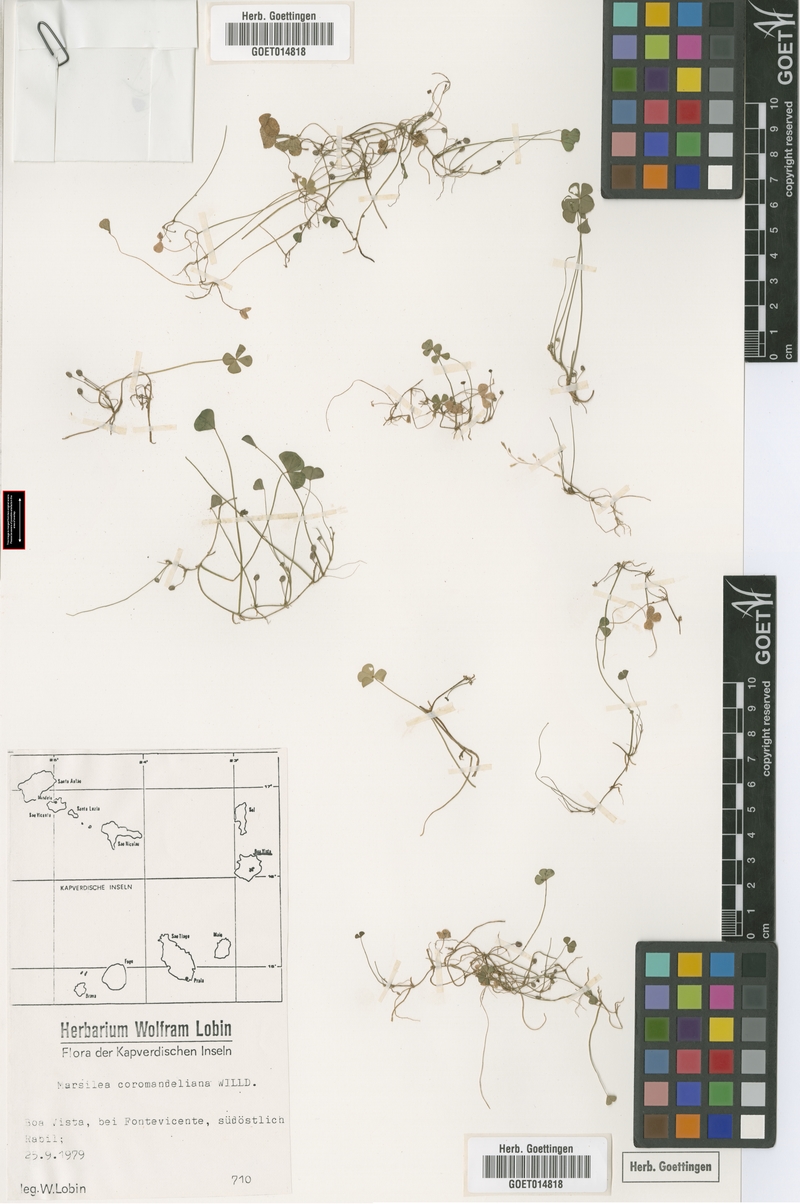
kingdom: Plantae
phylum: Tracheophyta
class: Polypodiopsida
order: Salviniales
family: Marsileaceae
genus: Marsilea
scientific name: Marsilea coromandeliana
